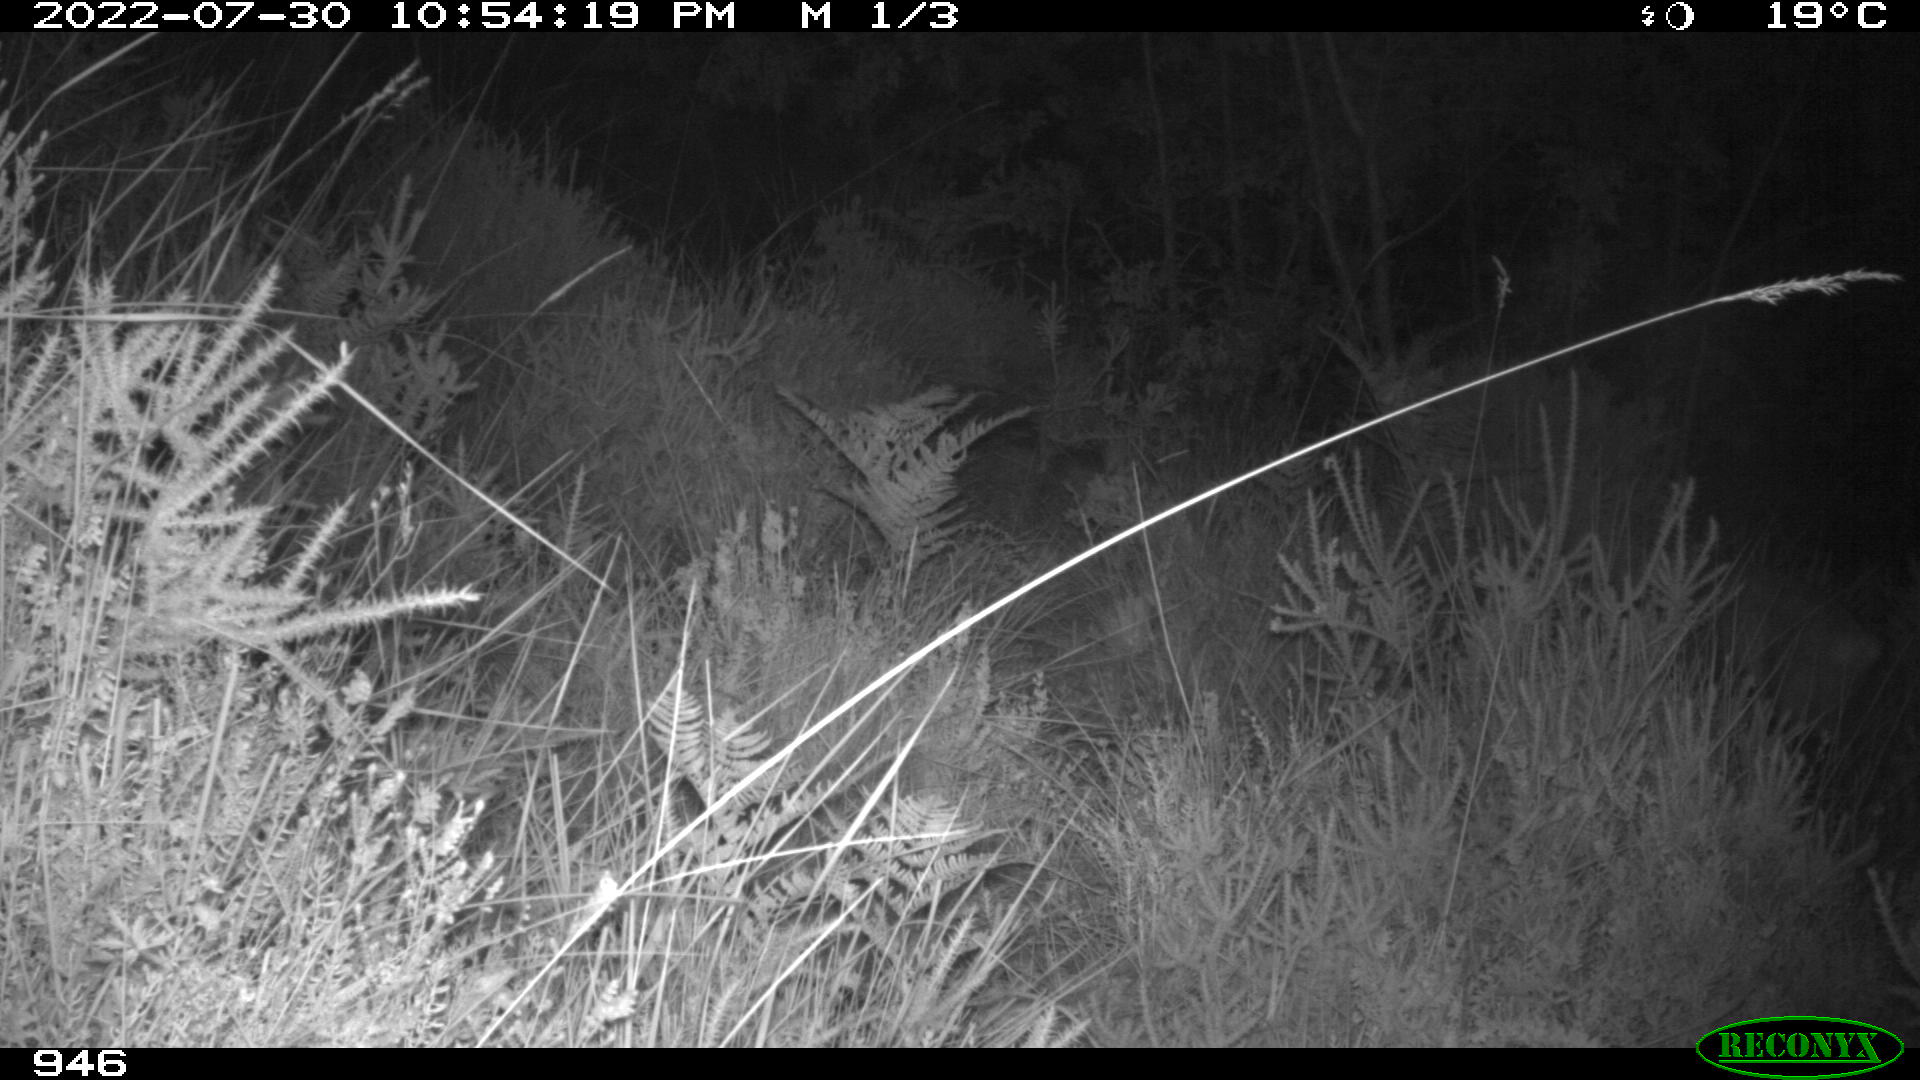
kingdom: Animalia
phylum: Chordata
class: Mammalia
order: Artiodactyla
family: Cervidae
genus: Capreolus
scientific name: Capreolus capreolus
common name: Western roe deer
